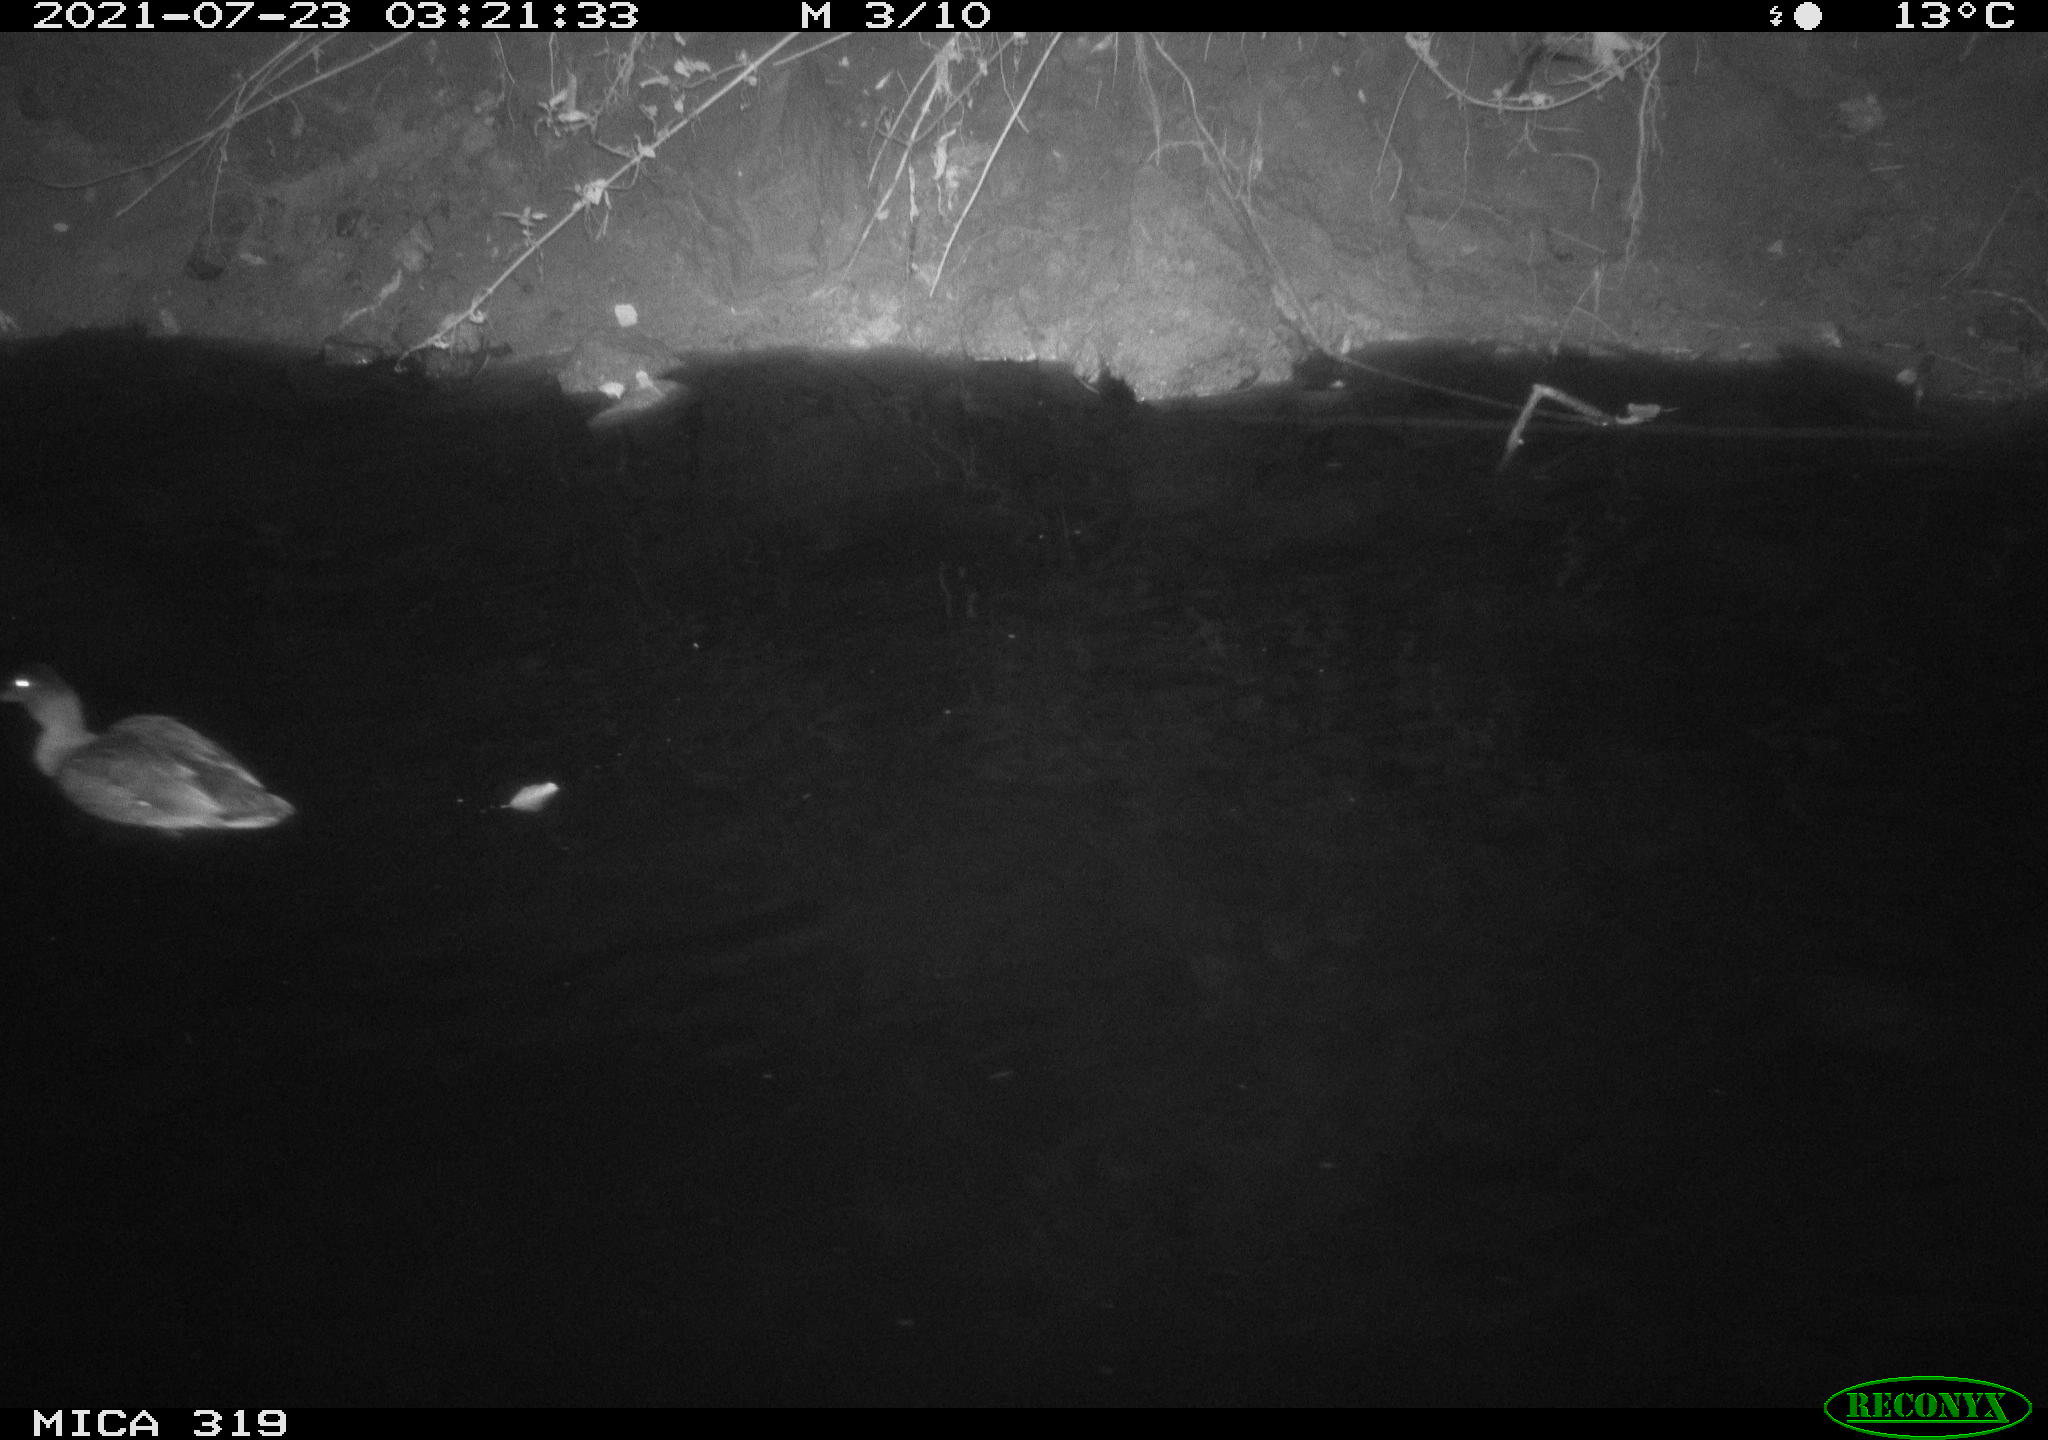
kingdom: Animalia
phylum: Chordata
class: Aves
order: Anseriformes
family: Anatidae
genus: Anas
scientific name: Anas platyrhynchos
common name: Mallard
